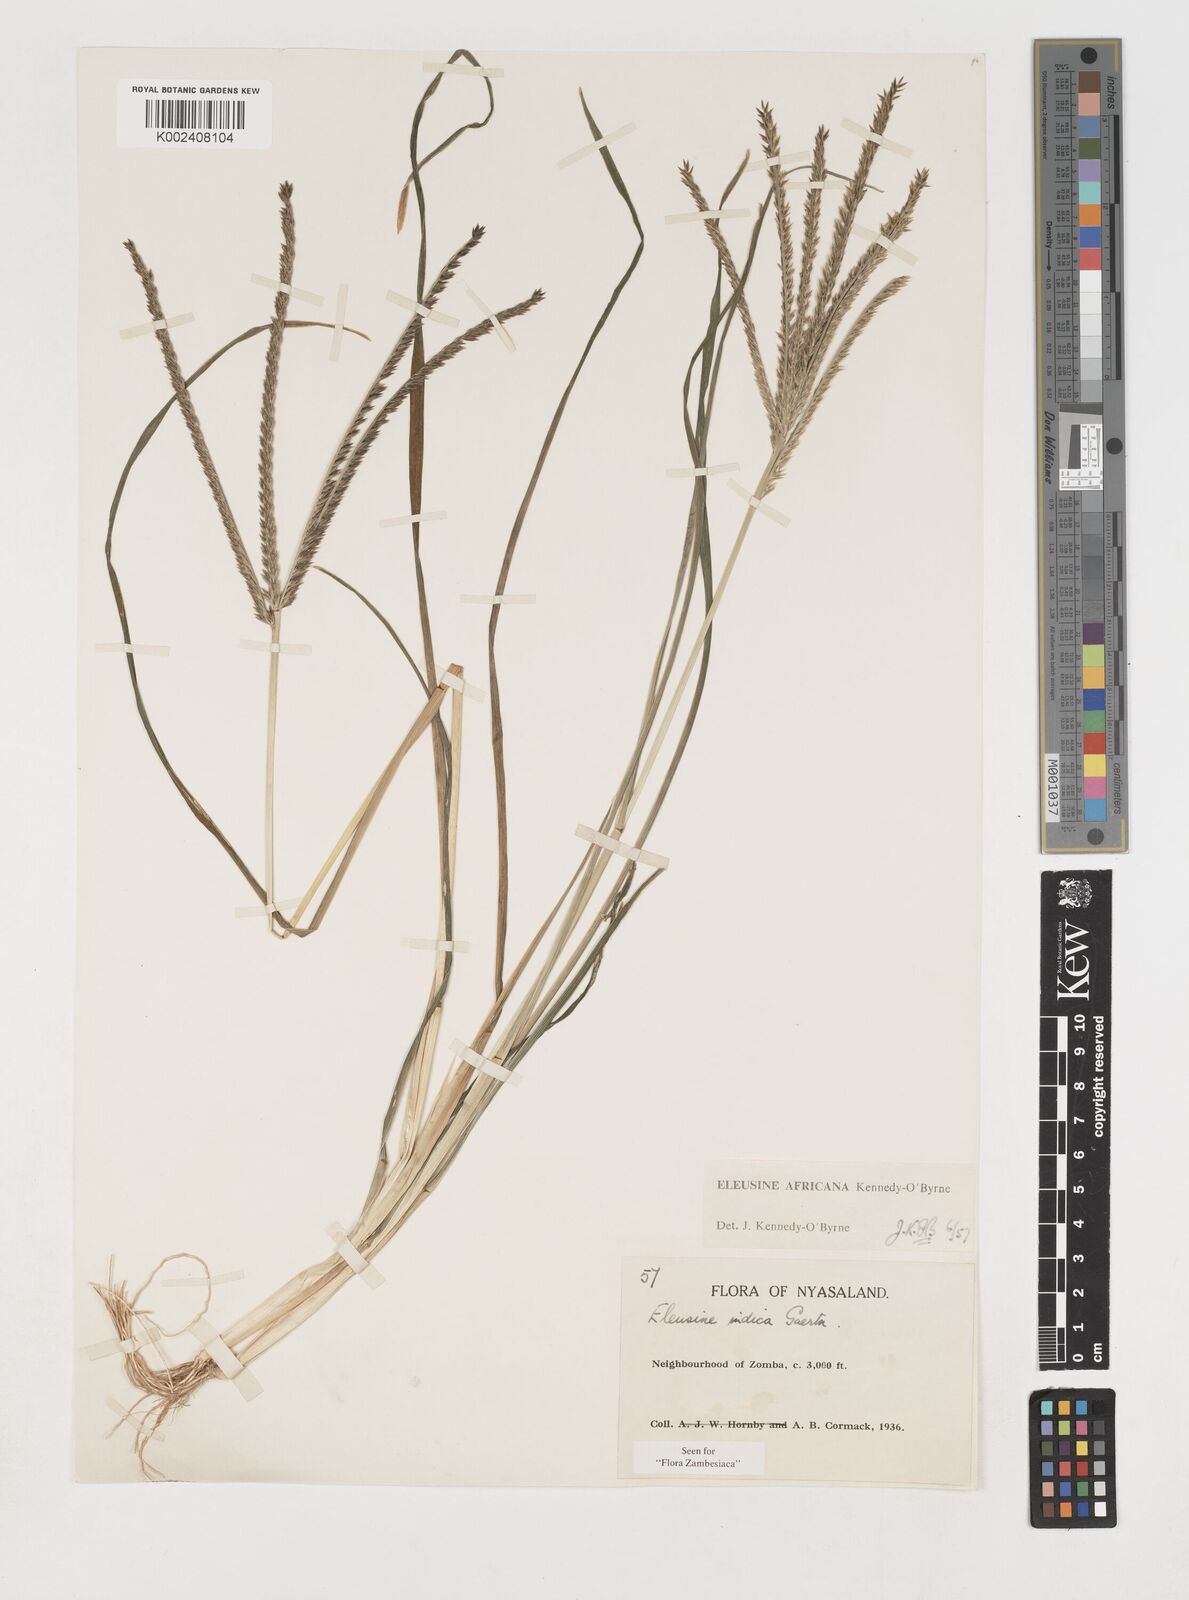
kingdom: Plantae
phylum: Tracheophyta
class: Liliopsida
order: Poales
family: Poaceae
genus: Eleusine
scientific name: Eleusine africana
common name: Wild african finger millet
